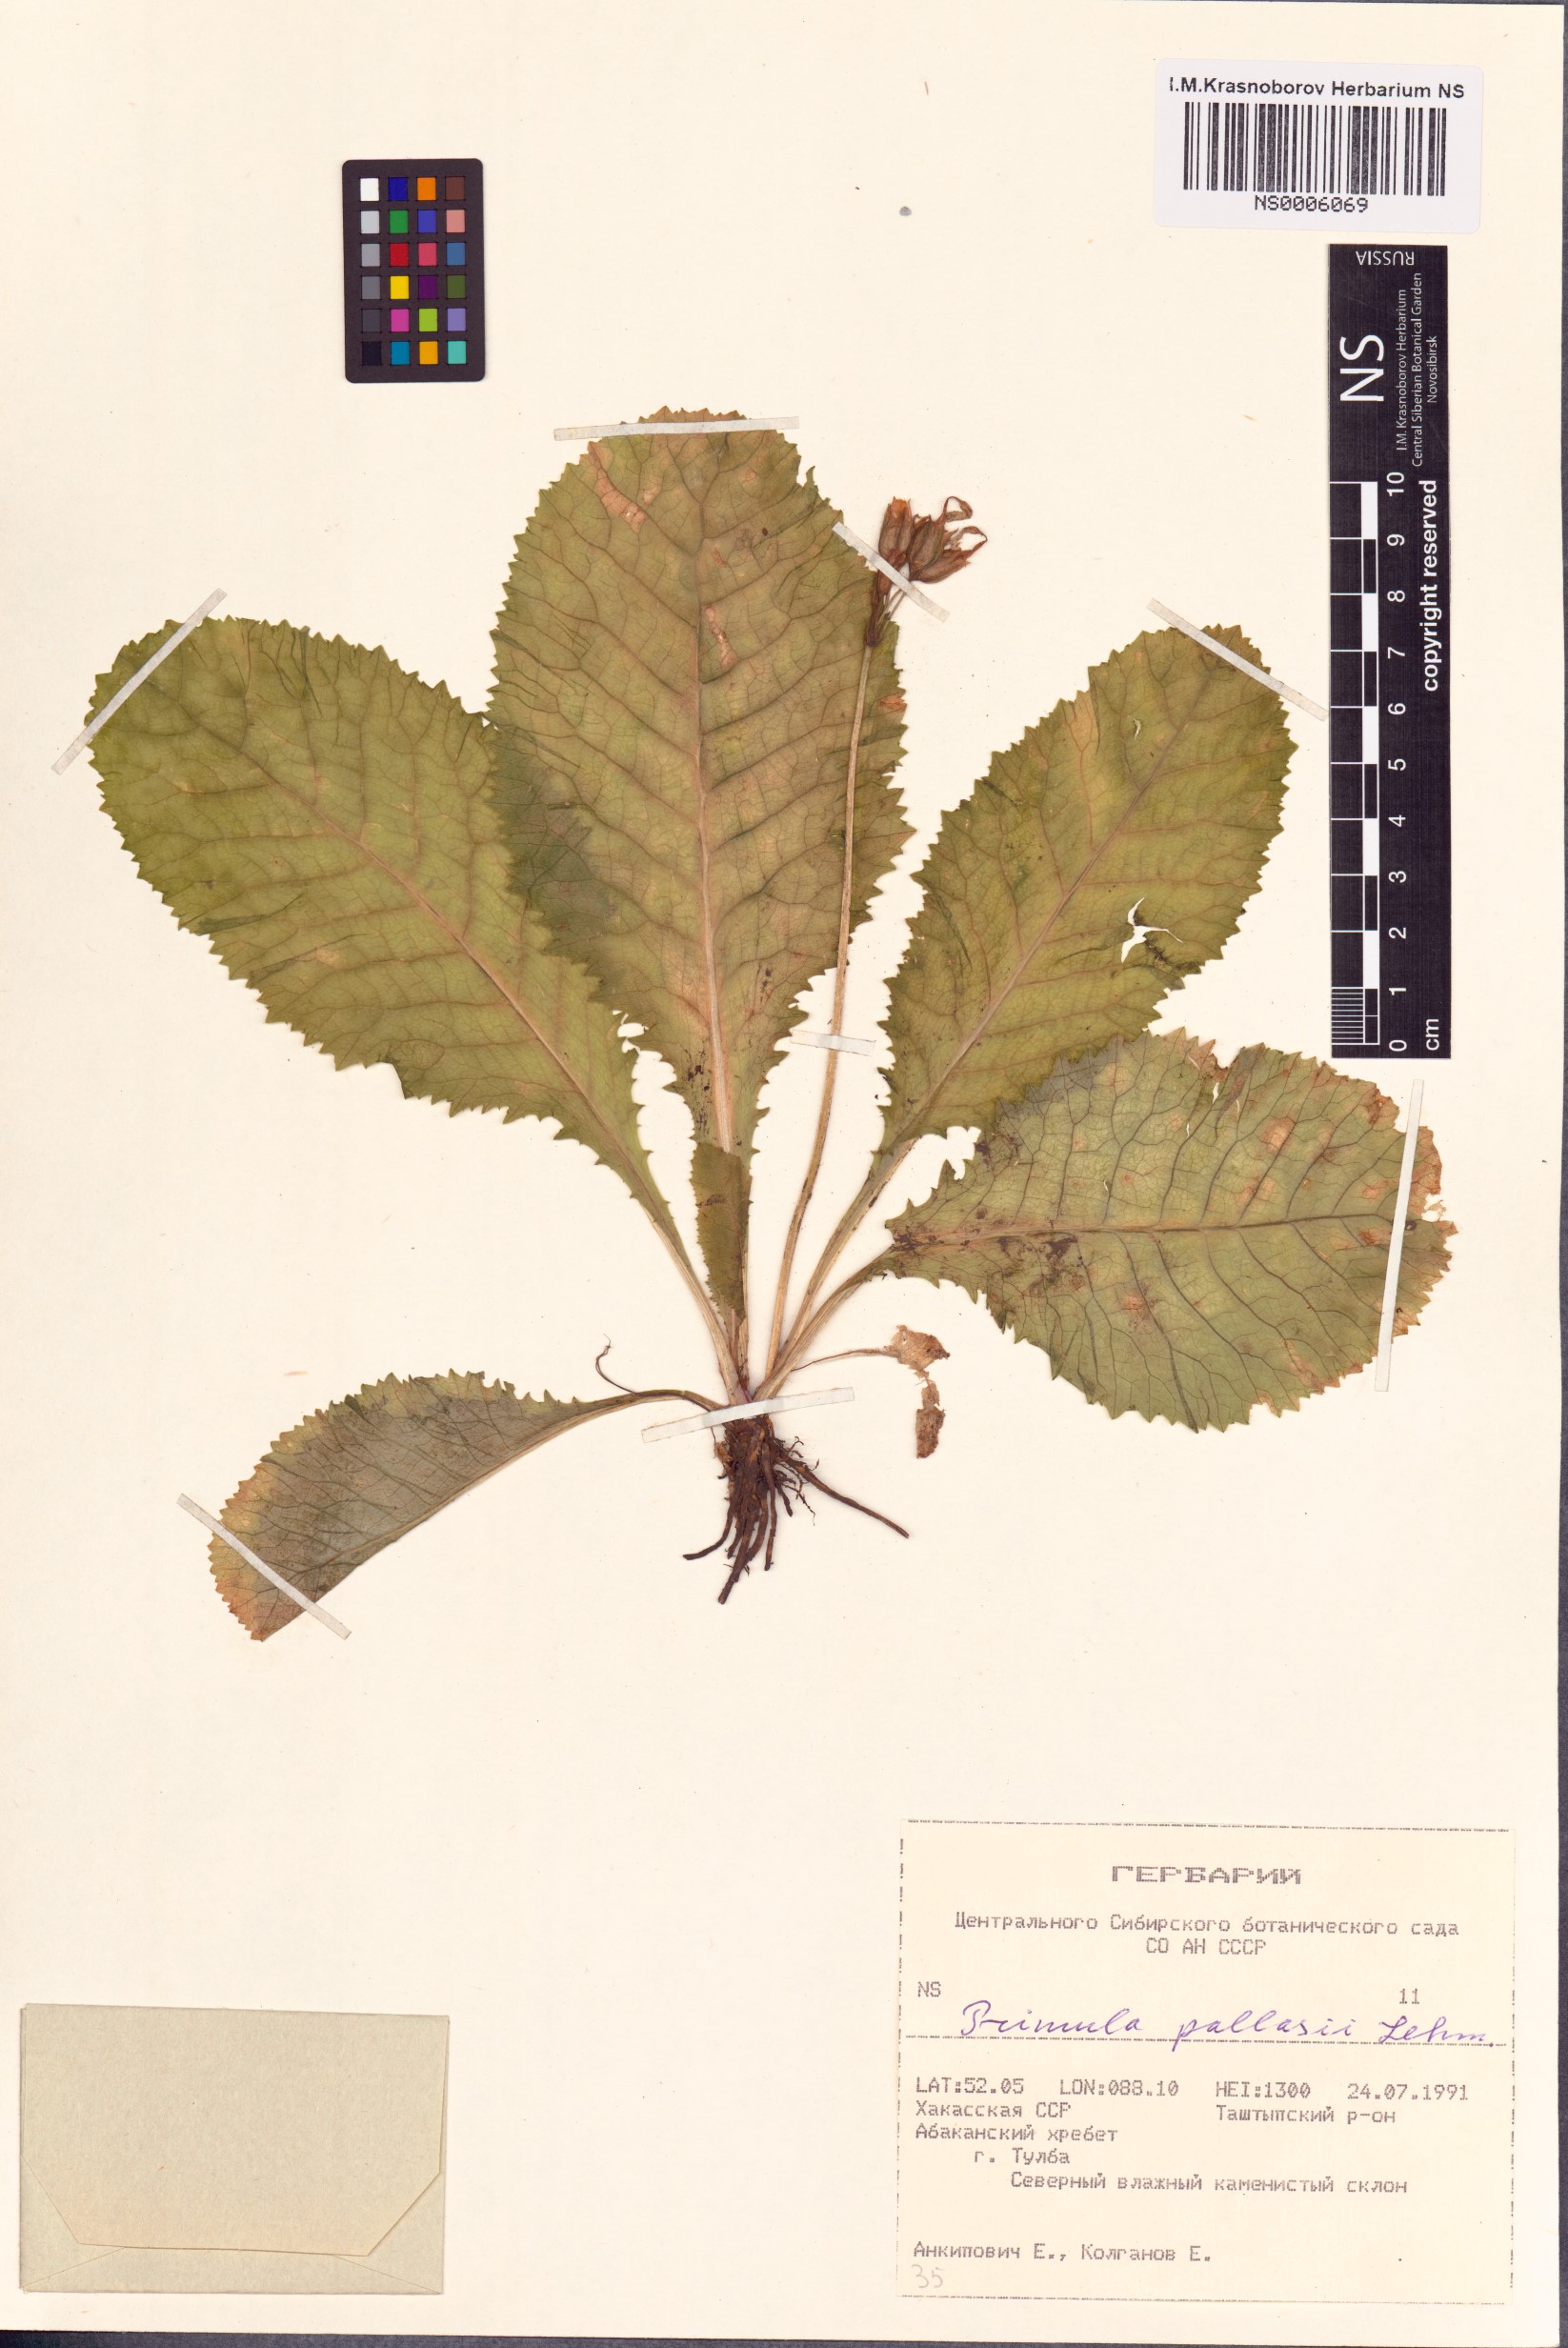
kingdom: Plantae
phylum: Tracheophyta
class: Magnoliopsida
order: Ericales
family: Primulaceae
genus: Primula
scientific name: Primula elatior
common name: Oxlip
